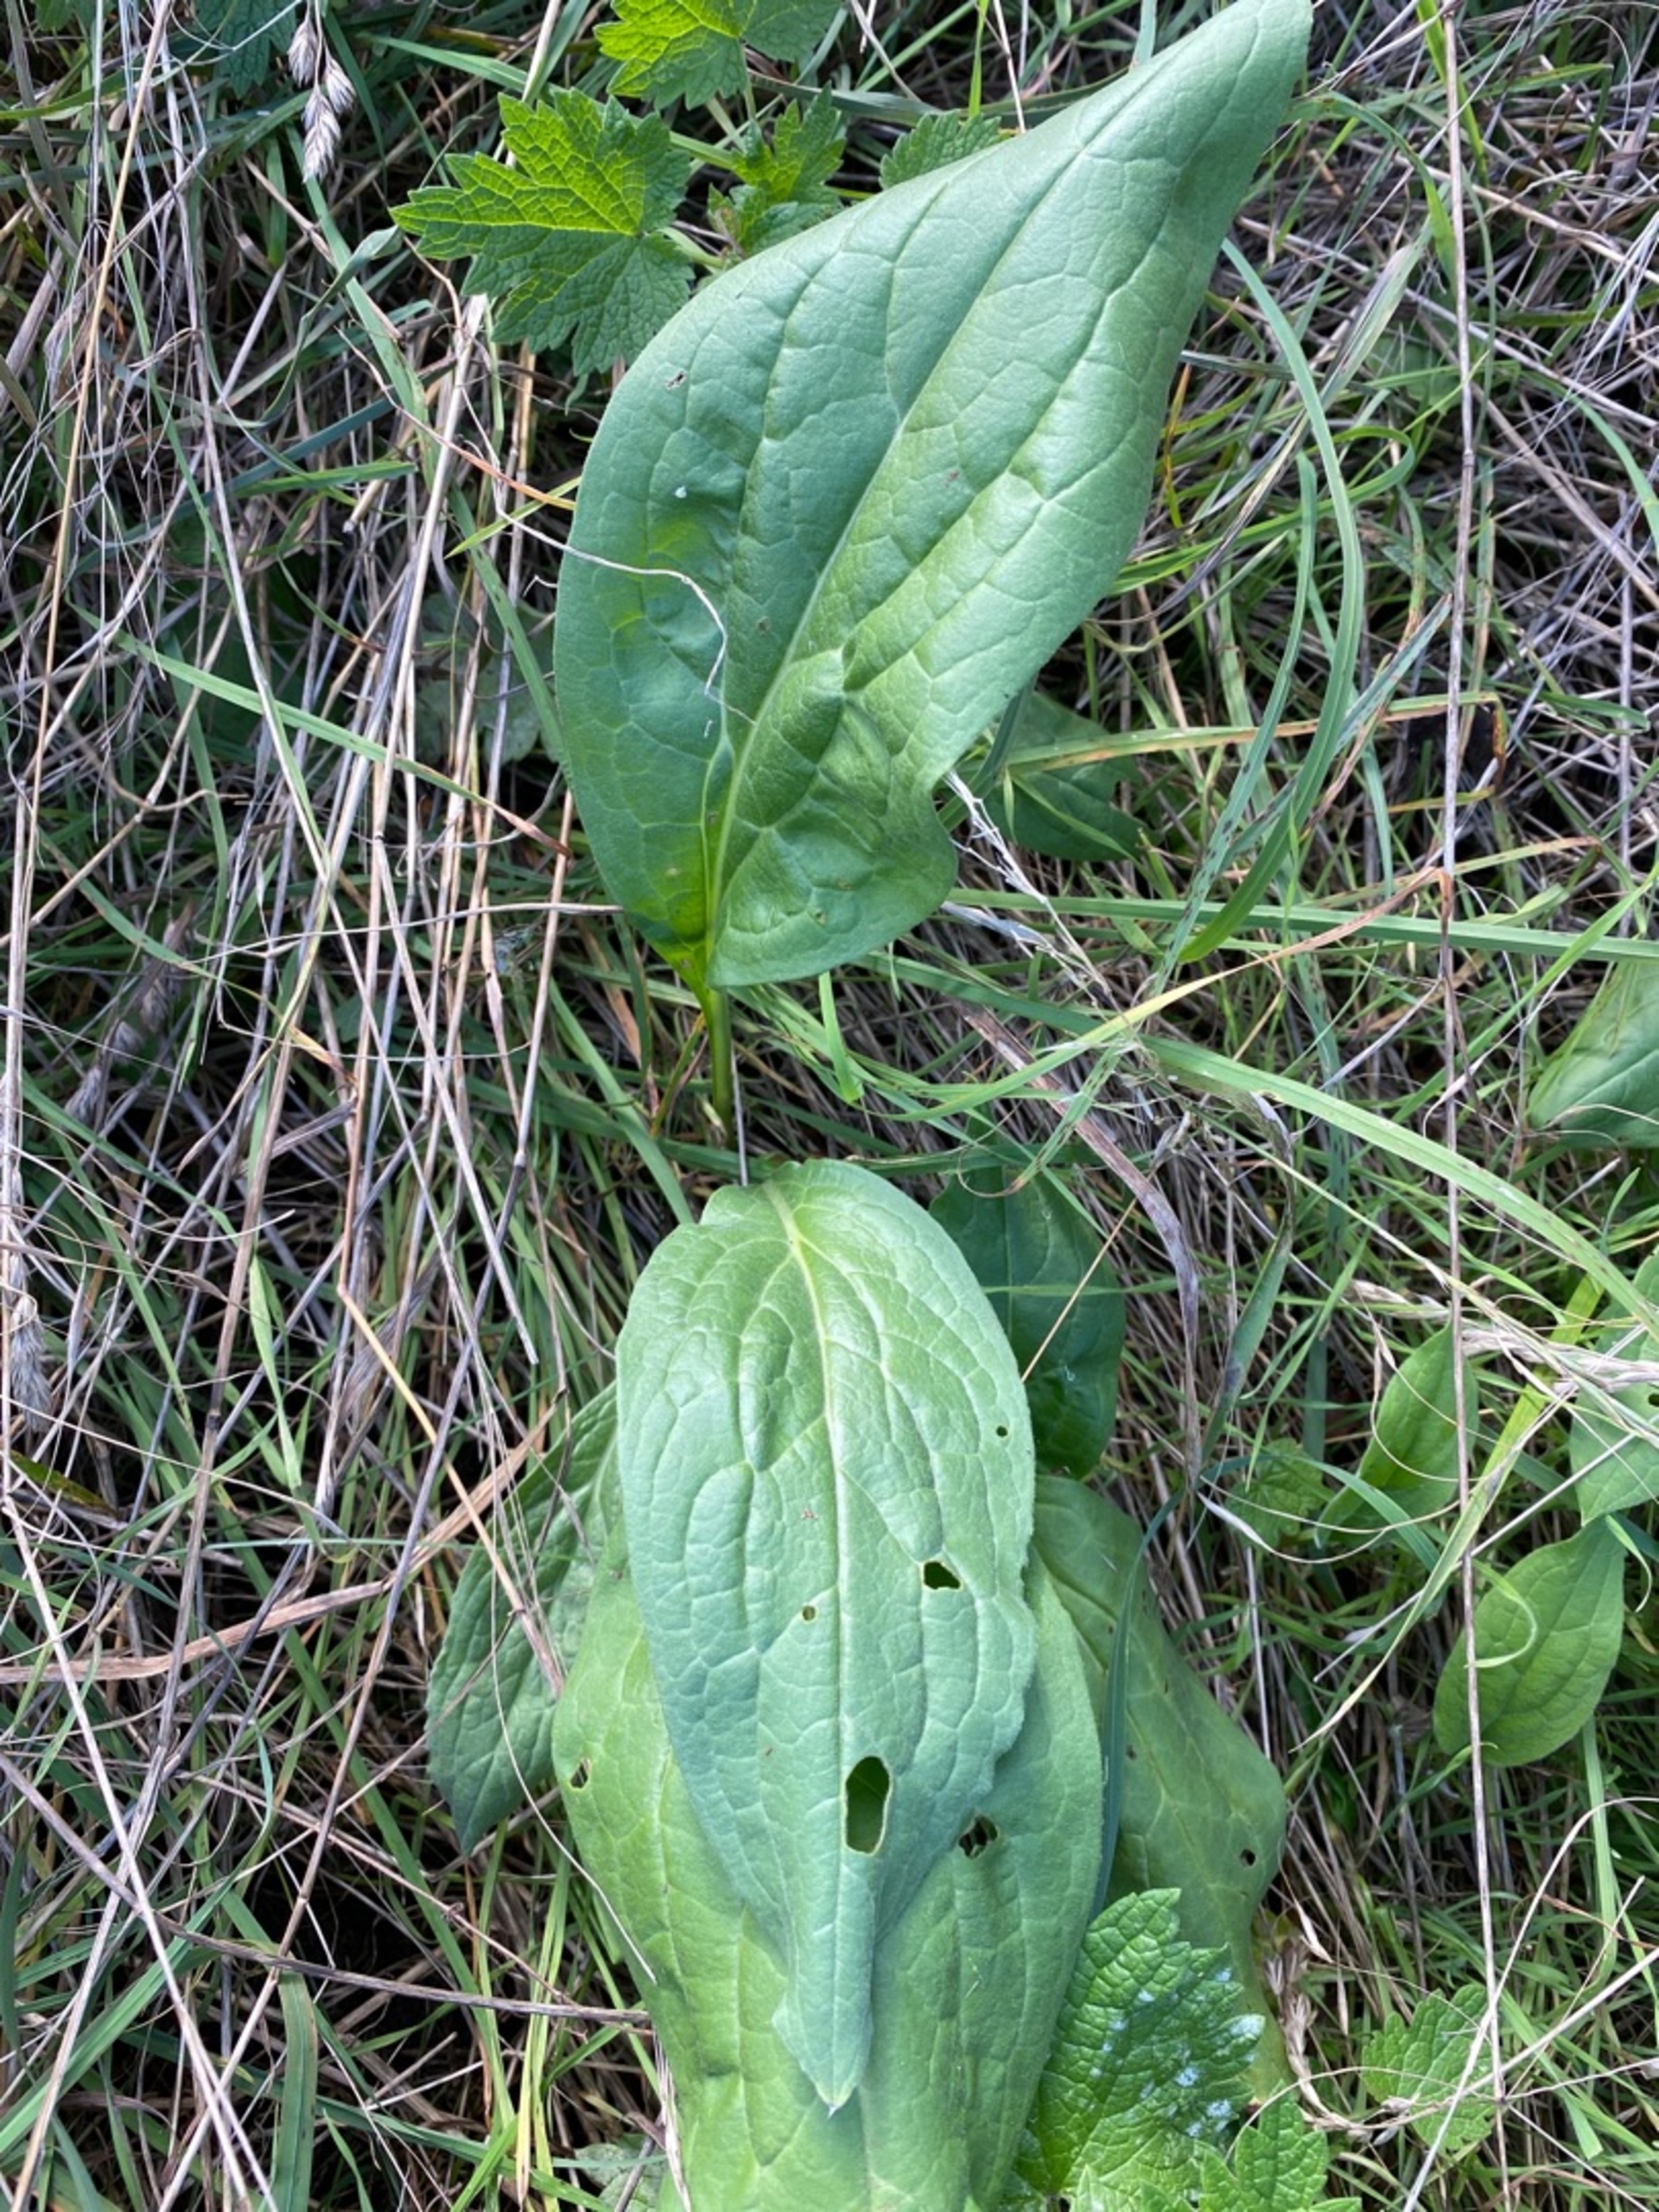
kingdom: Plantae
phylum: Tracheophyta
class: Magnoliopsida
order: Boraginales
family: Boraginaceae
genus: Cynoglossum
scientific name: Cynoglossum officinale
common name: Hundetunge
